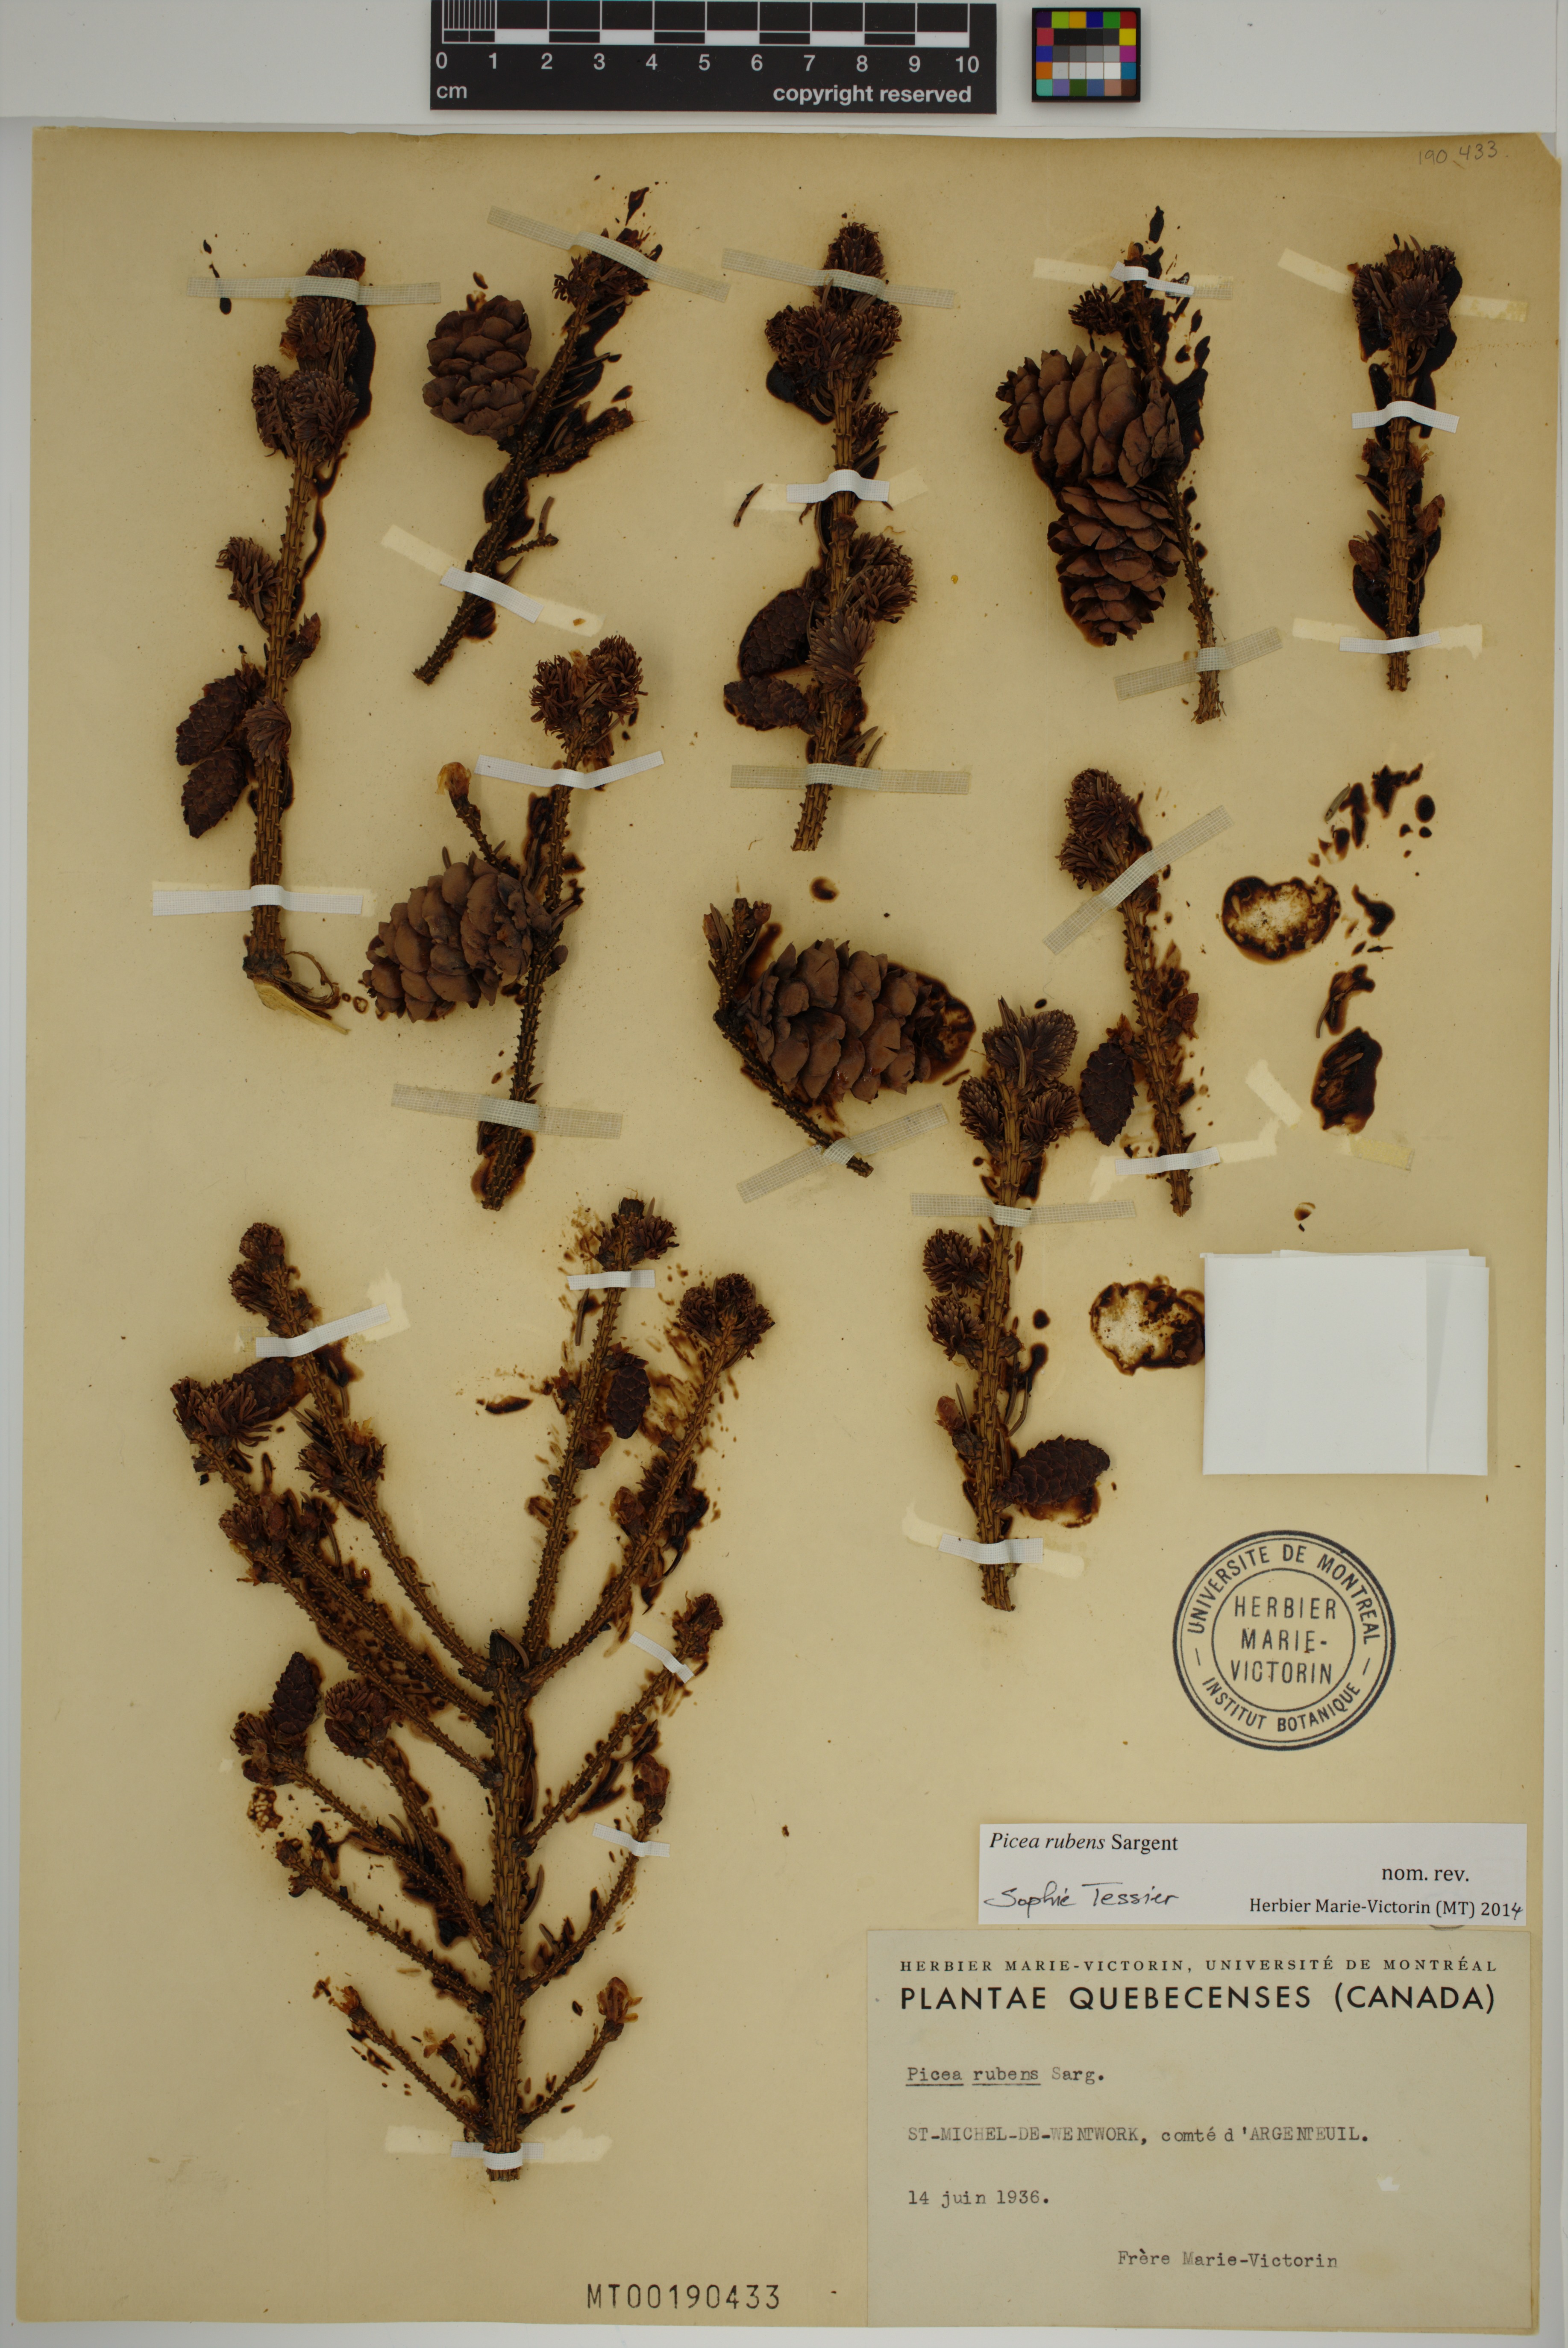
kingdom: Plantae
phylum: Tracheophyta
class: Pinopsida
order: Pinales
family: Pinaceae
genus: Picea
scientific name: Picea rubens
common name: Red spruce
